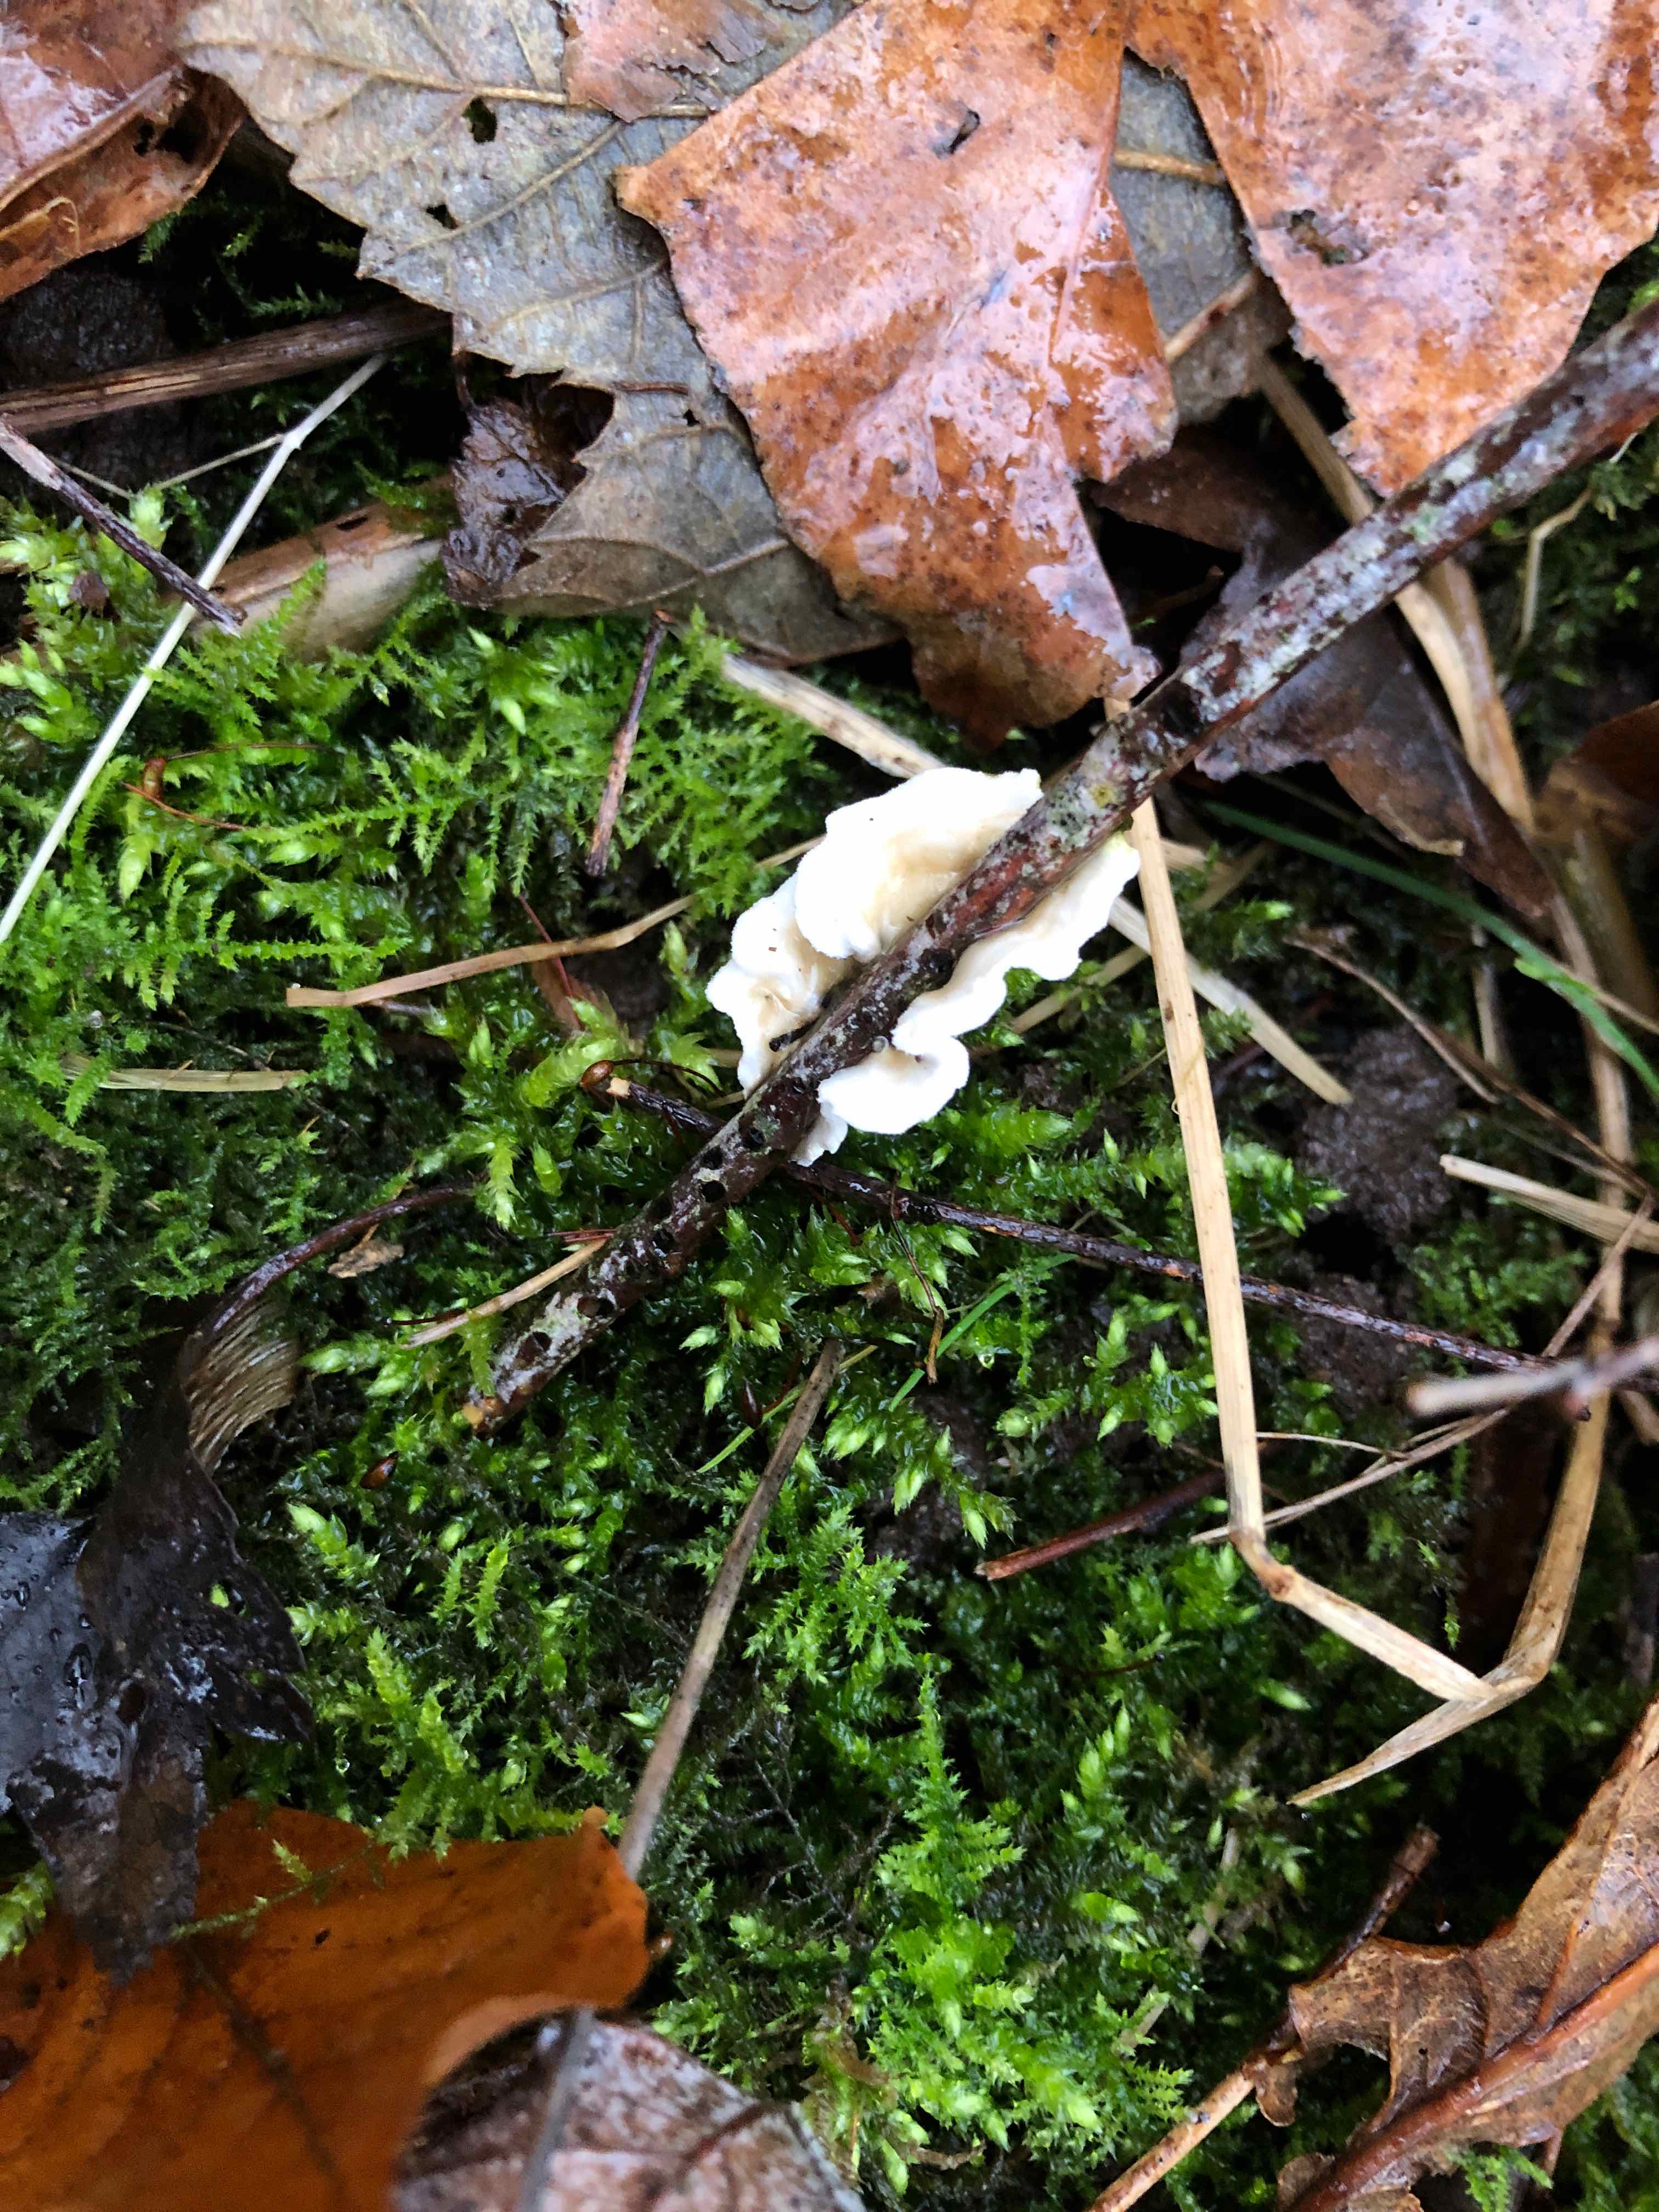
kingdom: Fungi
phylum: Basidiomycota
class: Agaricomycetes
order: Polyporales
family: Irpicaceae
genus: Byssomerulius
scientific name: Byssomerulius corium
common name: læder-åresvamp
